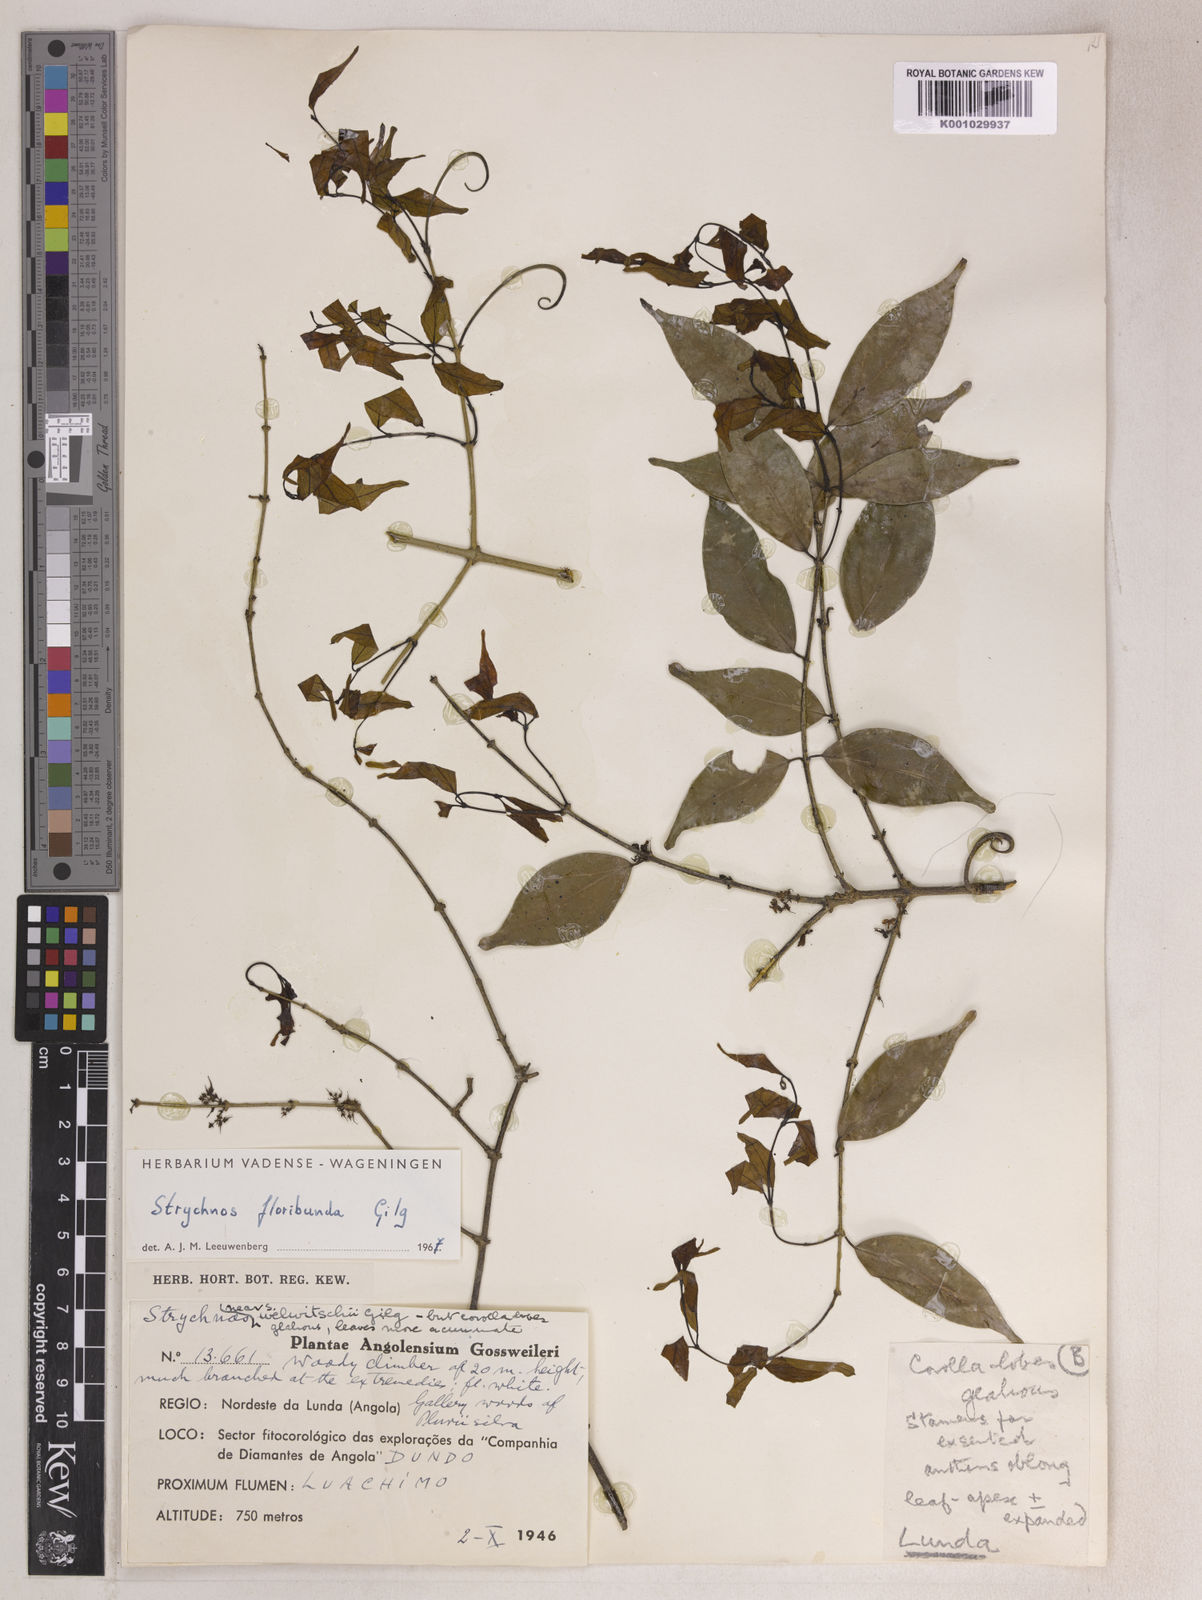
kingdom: Plantae
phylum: Tracheophyta
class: Magnoliopsida
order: Gentianales
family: Loganiaceae
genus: Strychnos
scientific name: Strychnos floribunda
